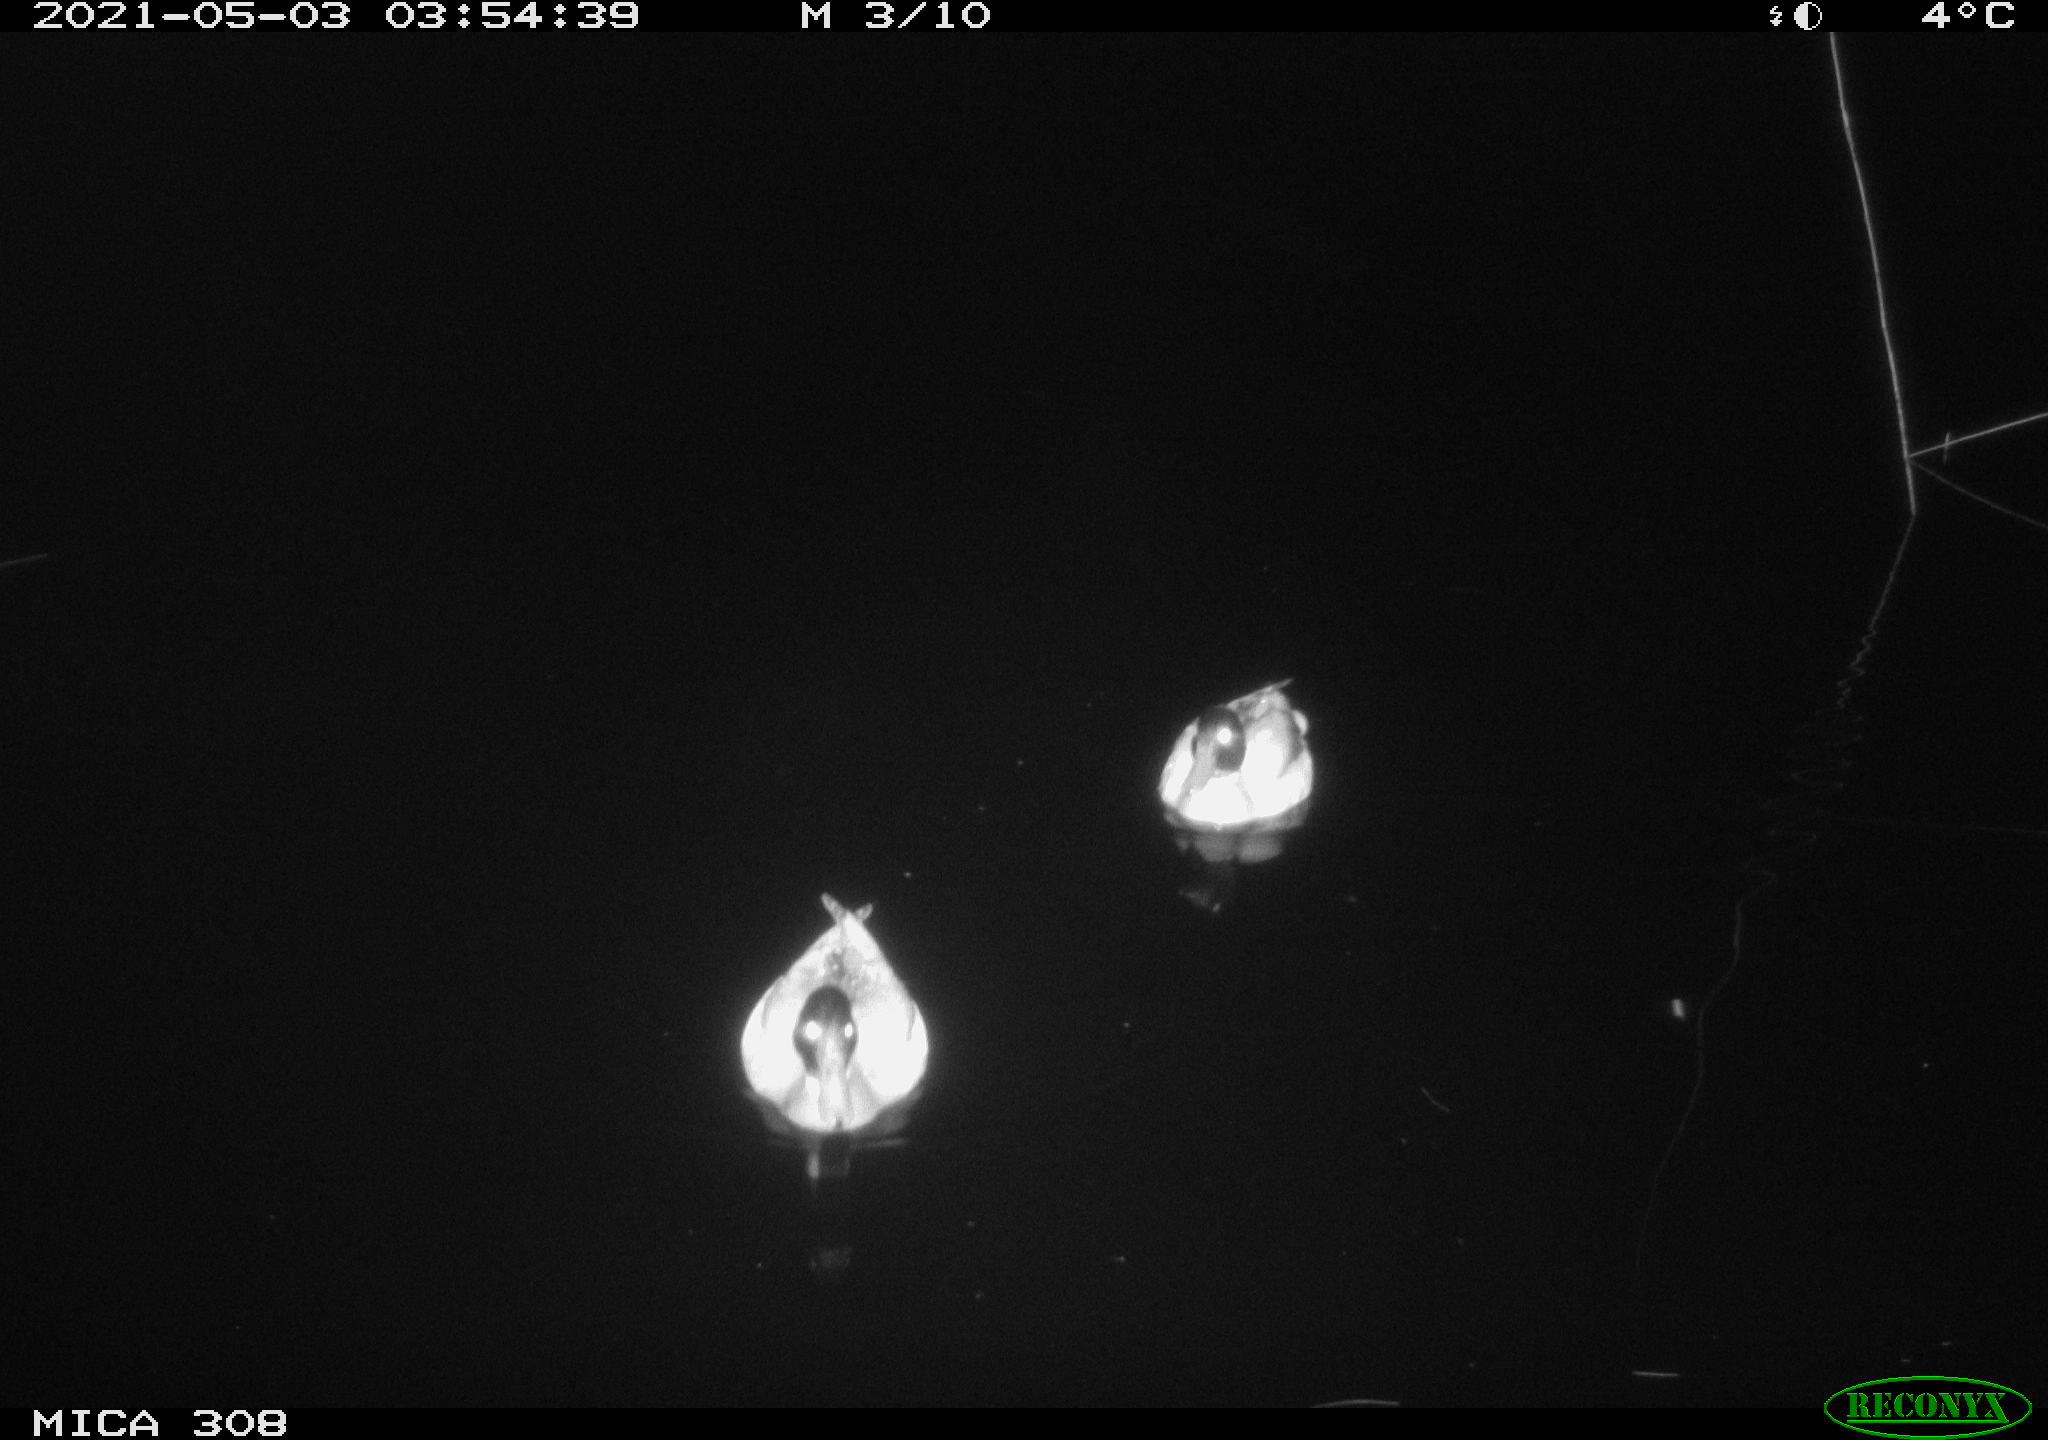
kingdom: Animalia
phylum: Chordata
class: Aves
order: Anseriformes
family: Anatidae
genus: Anas
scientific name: Anas platyrhynchos
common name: Mallard
